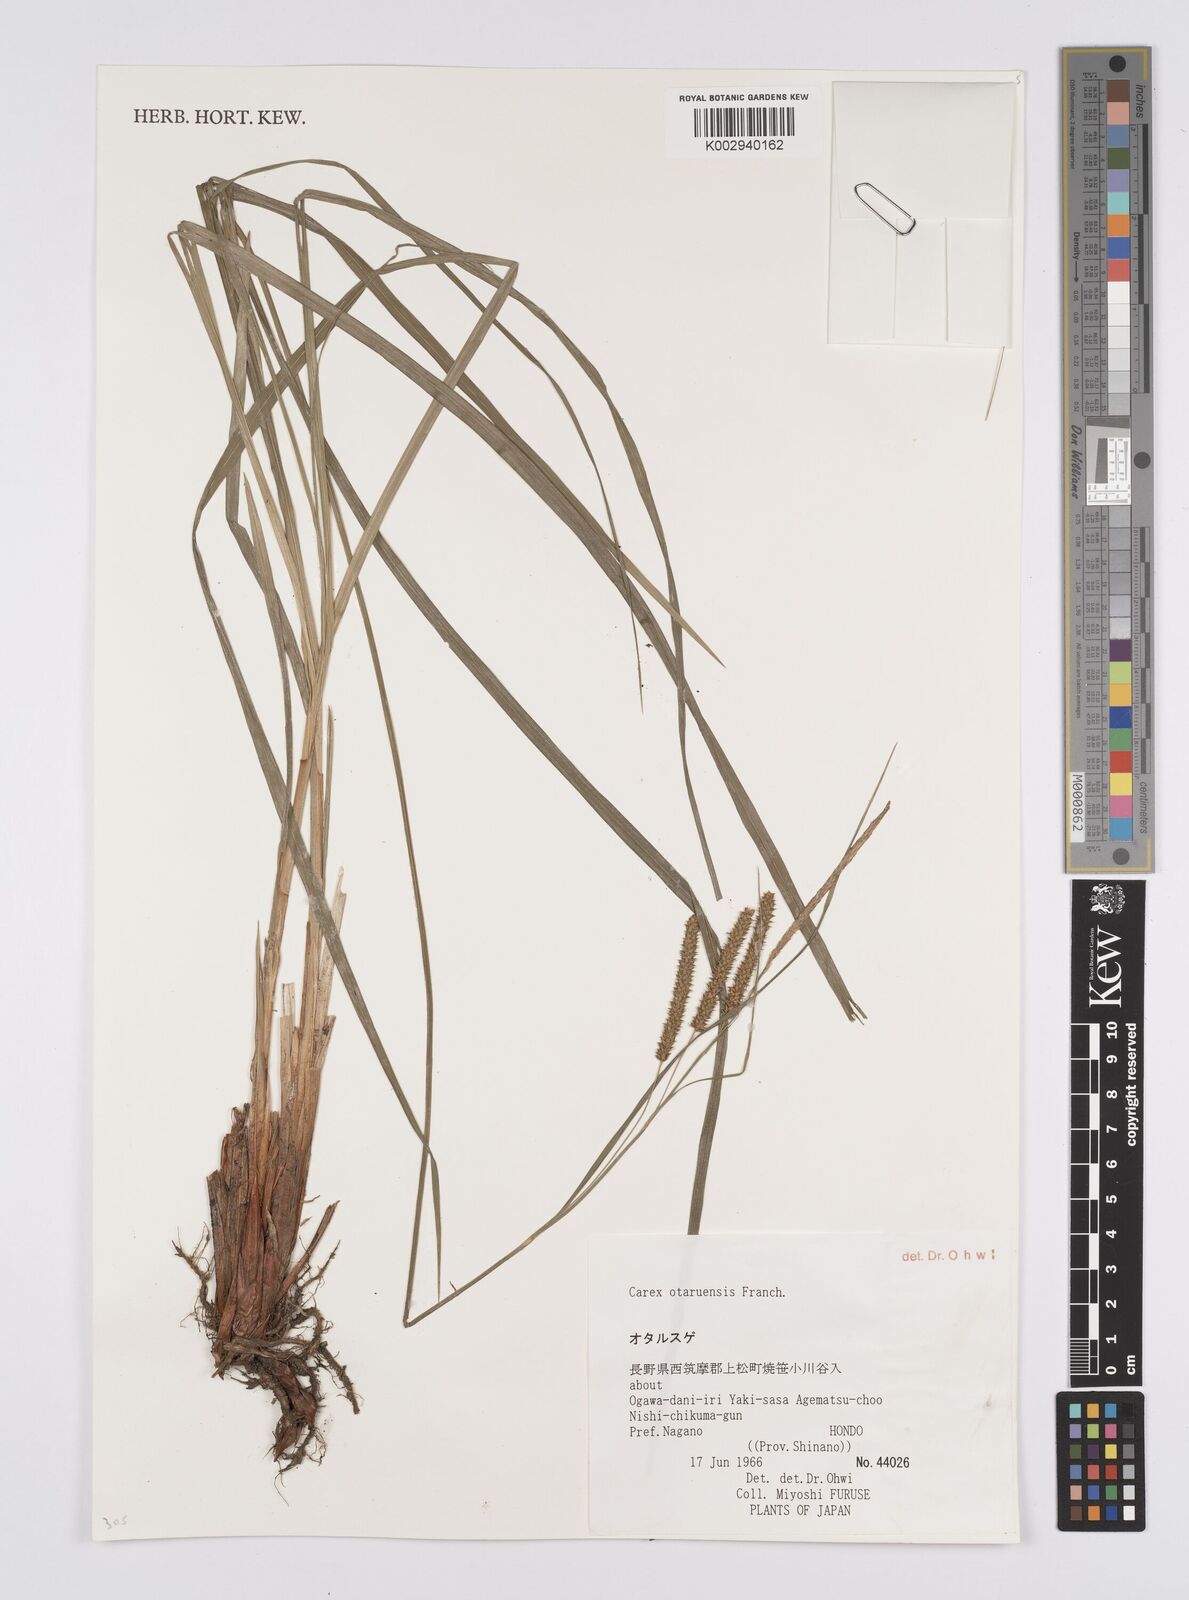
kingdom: Plantae
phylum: Tracheophyta
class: Liliopsida
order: Poales
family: Cyperaceae
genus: Carex
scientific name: Carex otaruensis
